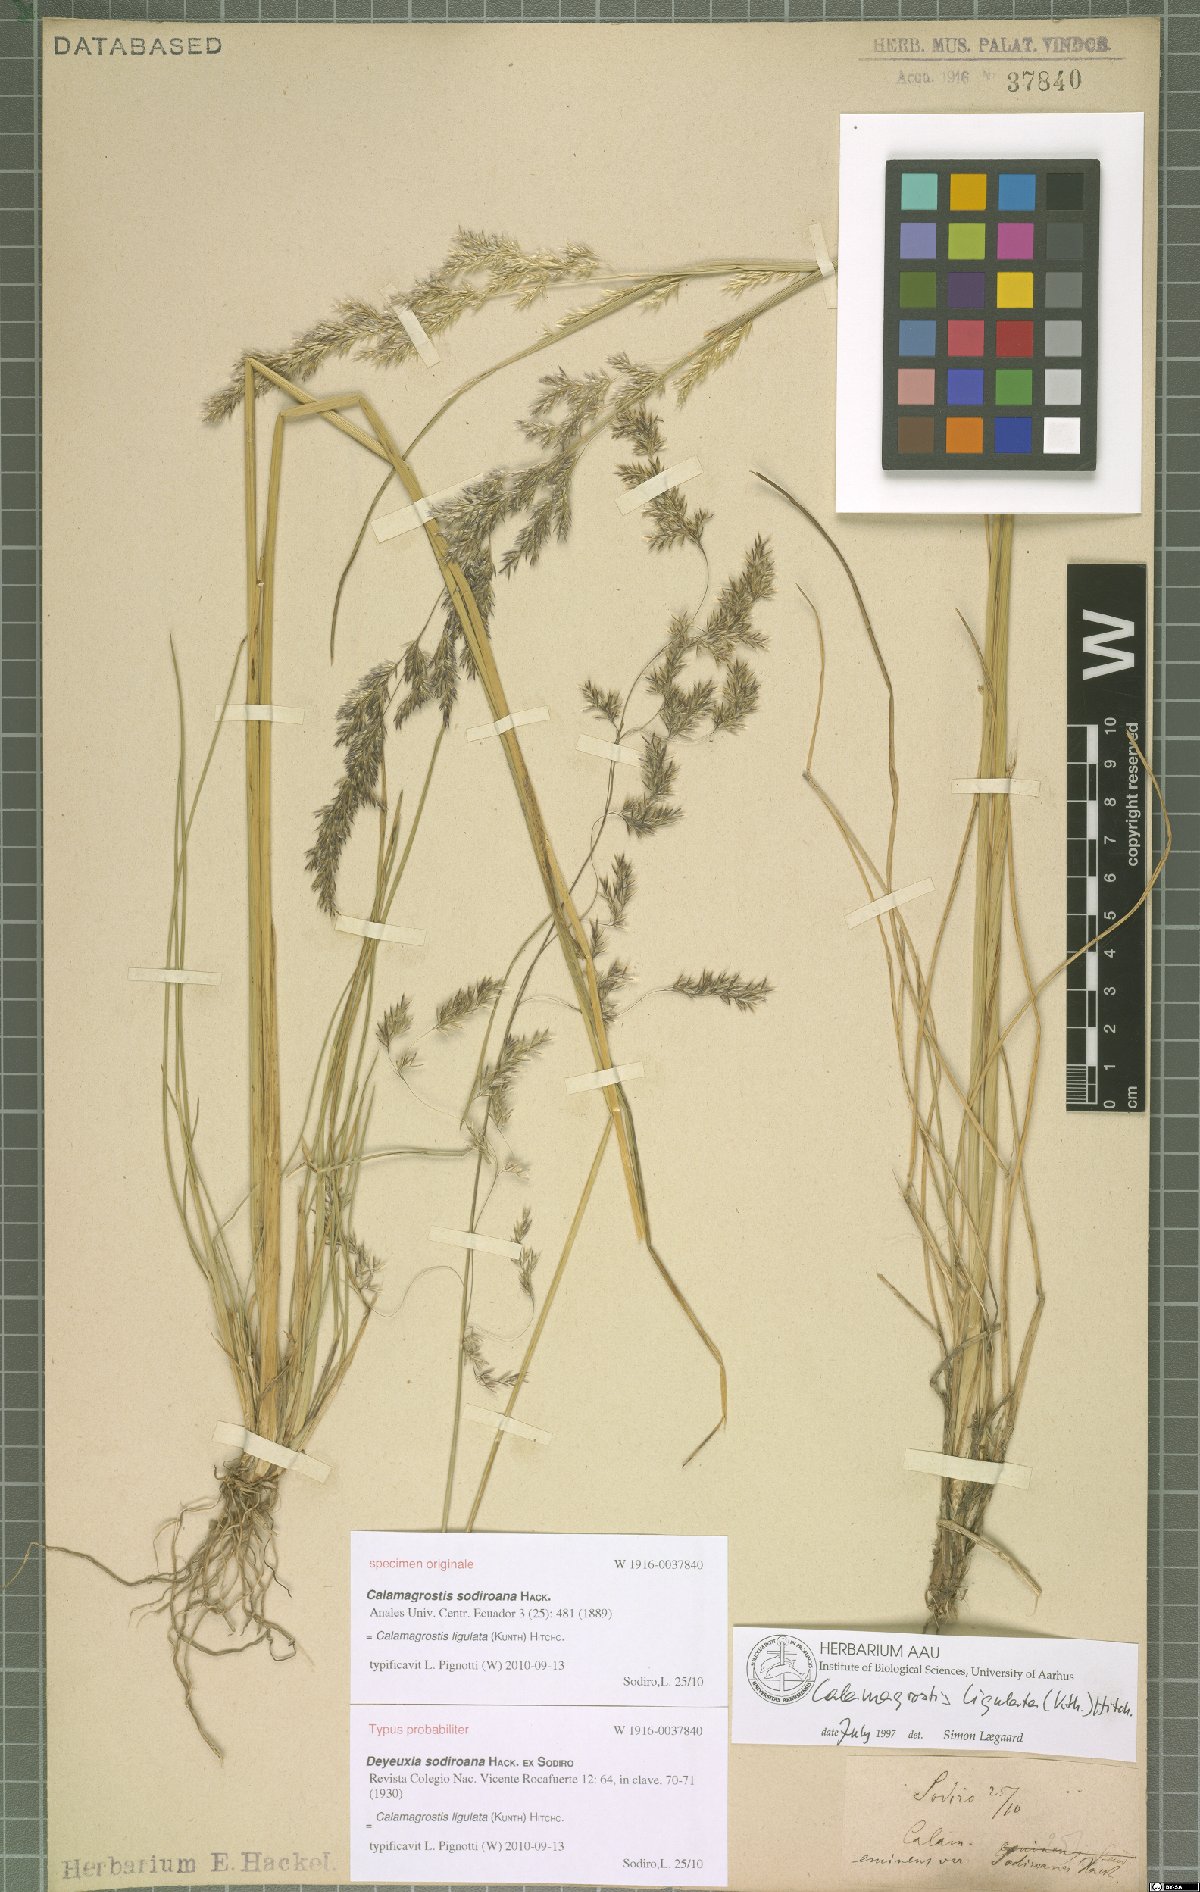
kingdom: Plantae
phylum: Tracheophyta
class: Liliopsida
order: Poales
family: Poaceae
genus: Calamagrostis
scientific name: Calamagrostis ligulata
